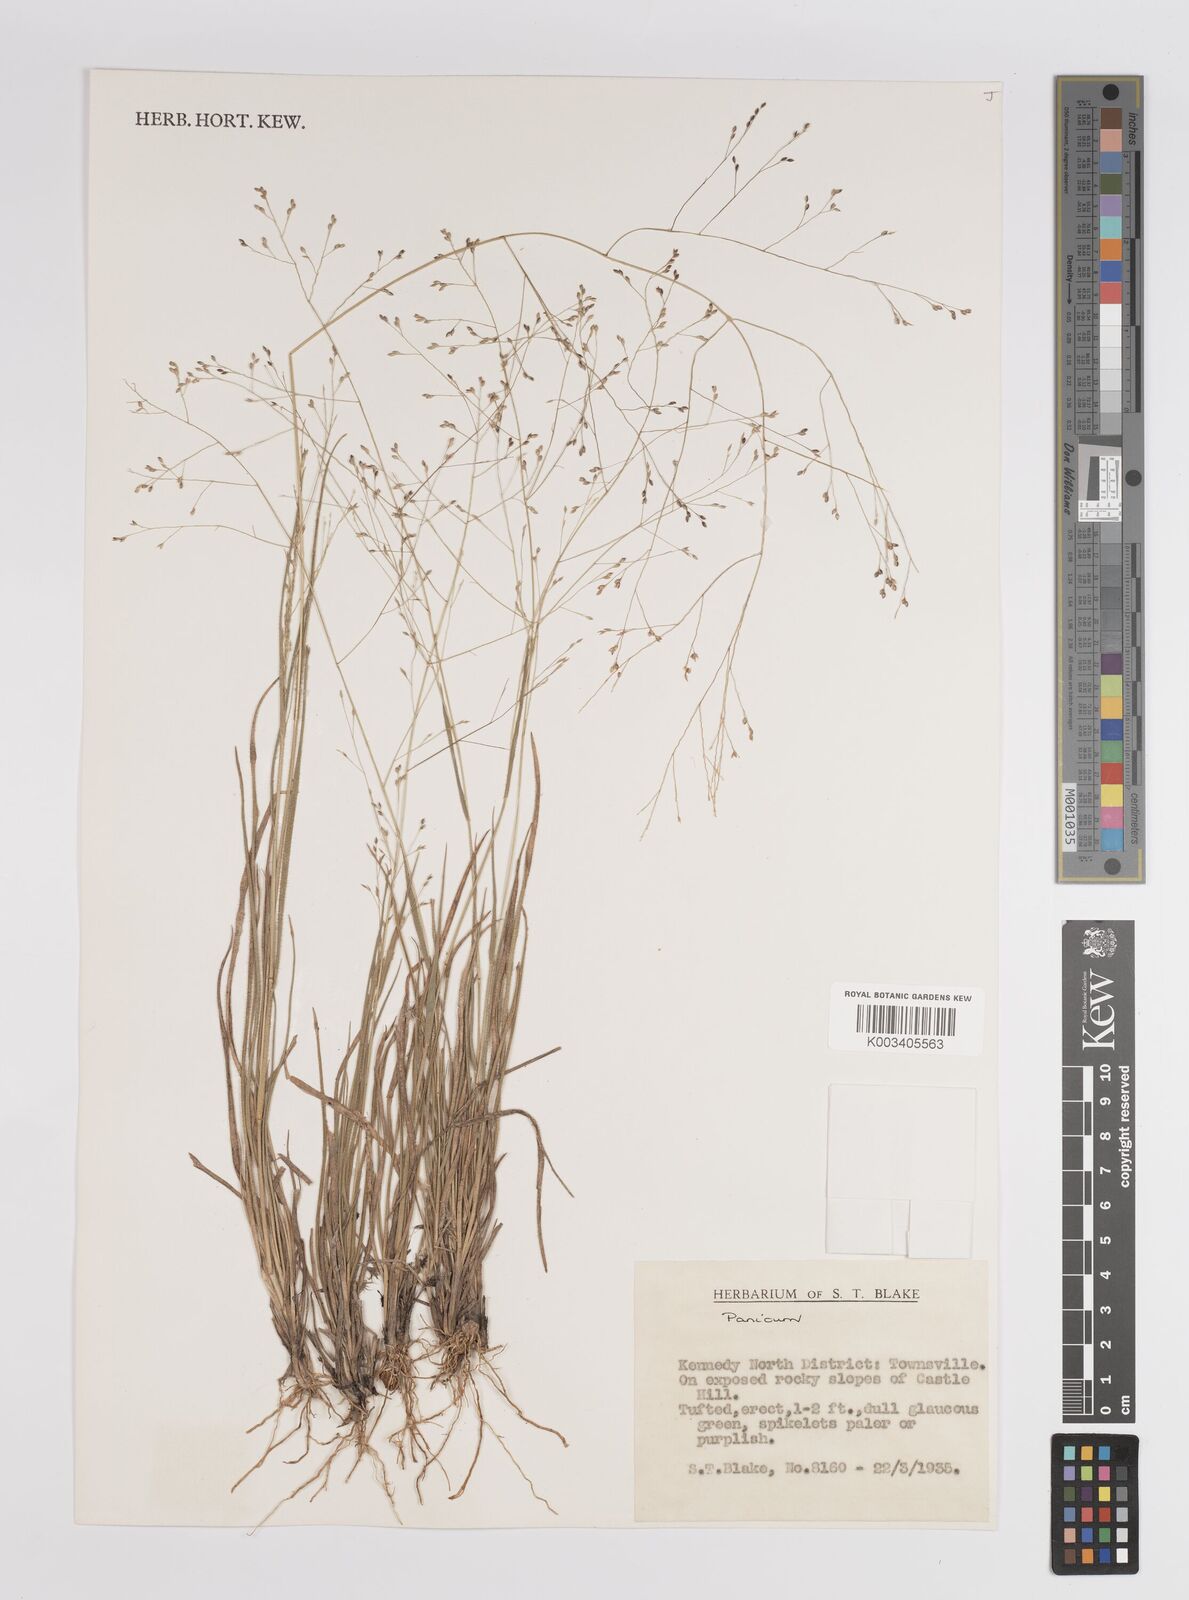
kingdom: Plantae
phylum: Tracheophyta
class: Liliopsida
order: Poales
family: Poaceae
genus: Panicum
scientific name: Panicum
